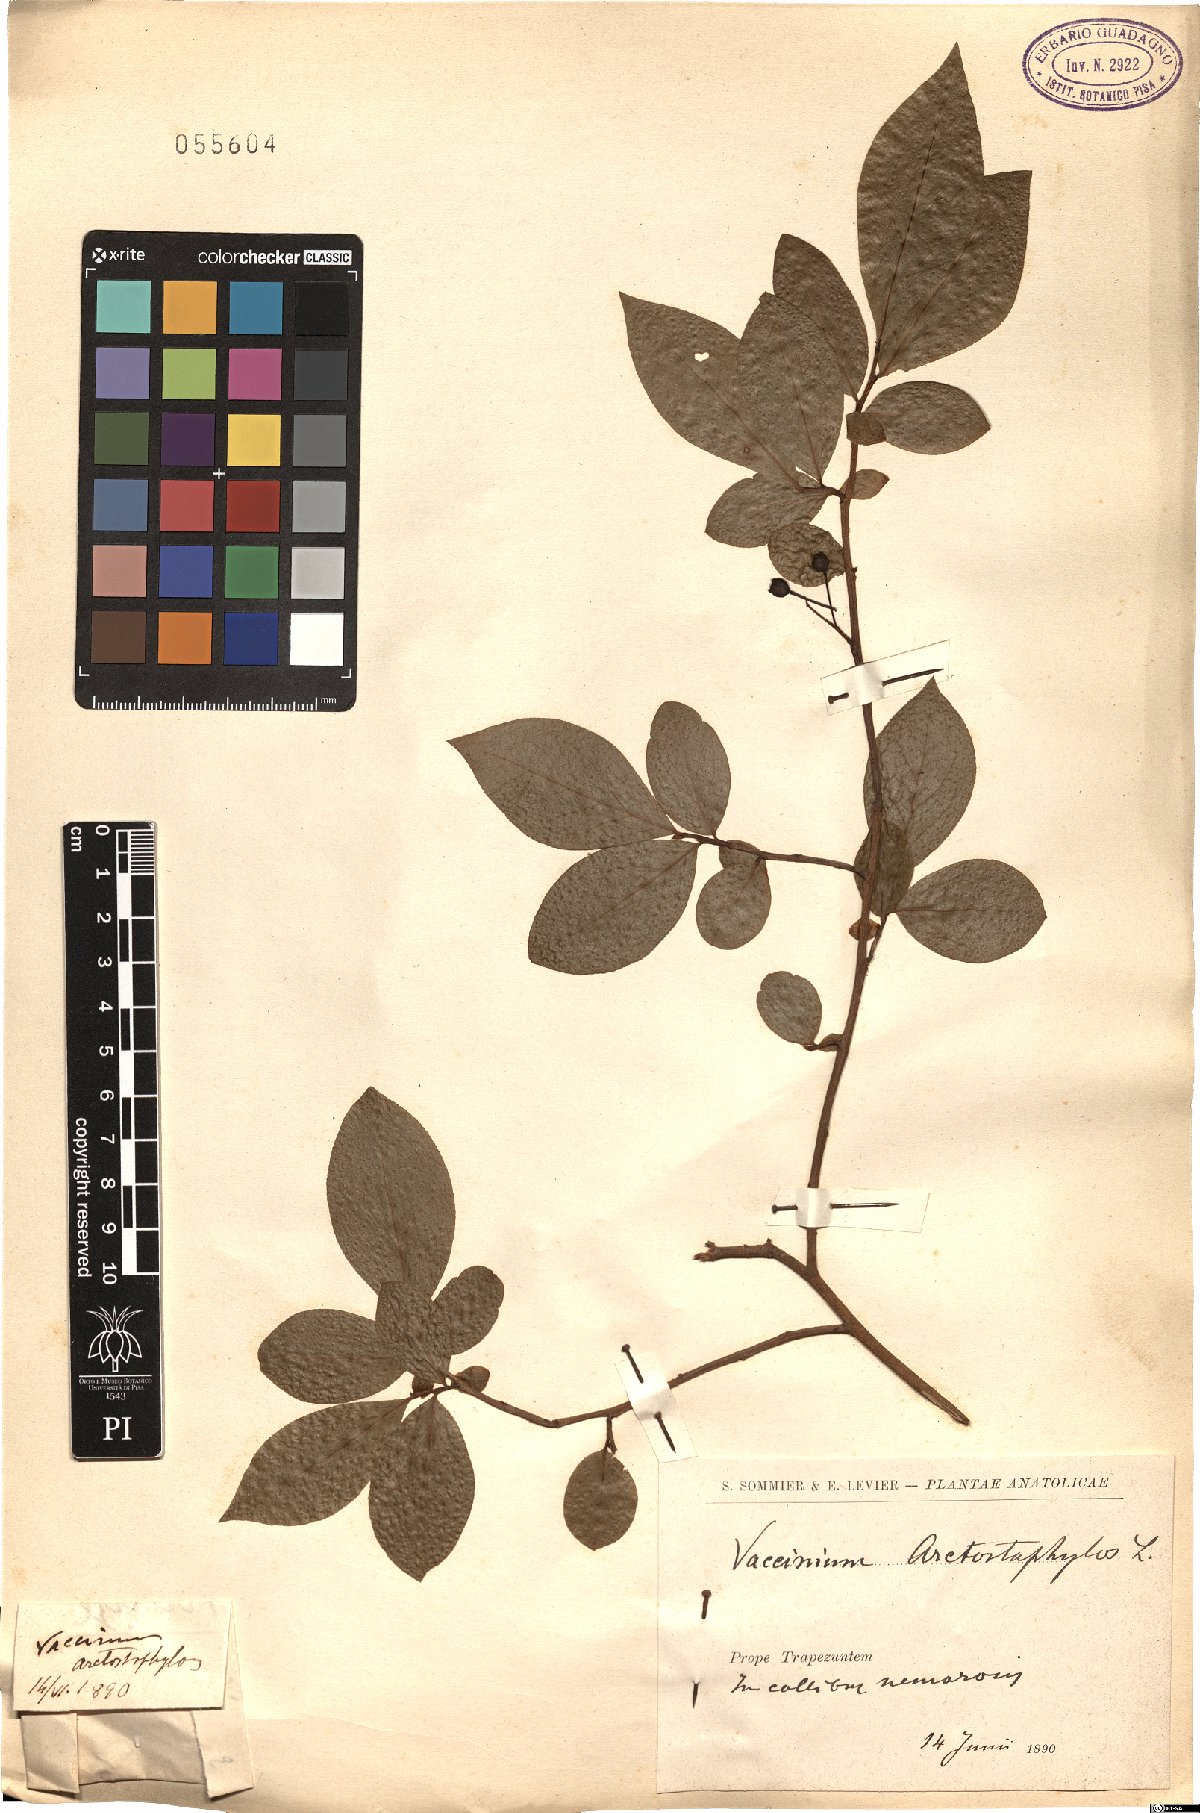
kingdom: Plantae
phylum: Tracheophyta
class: Magnoliopsida
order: Ericales
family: Ericaceae
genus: Vaccinium
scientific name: Vaccinium arctostaphylos
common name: Caucasian whortleberry
